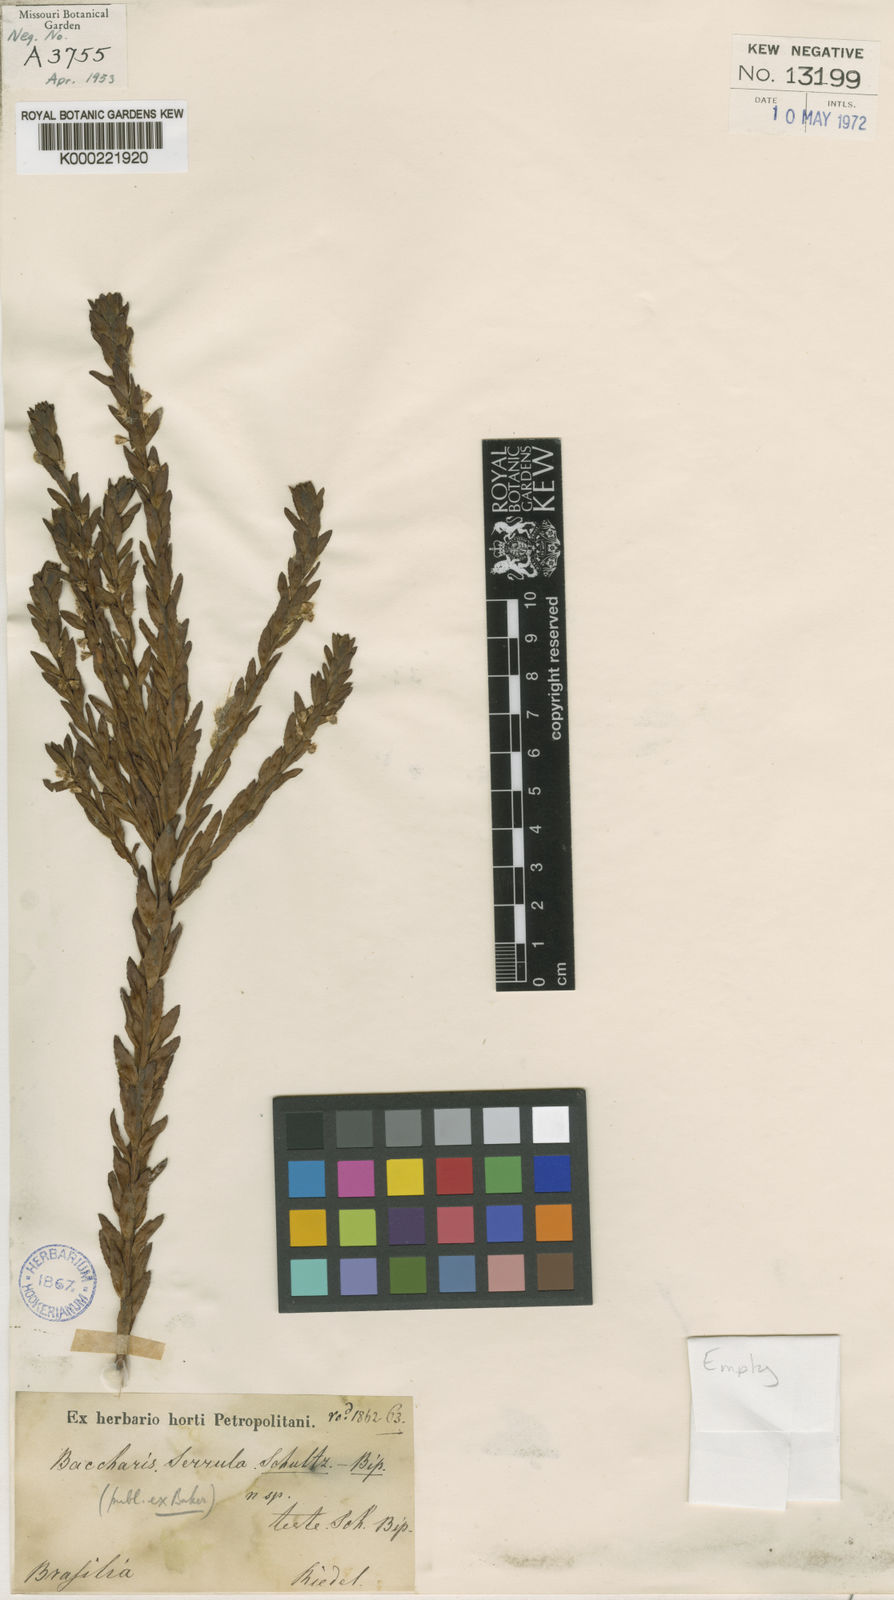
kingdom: Plantae
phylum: Tracheophyta
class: Magnoliopsida
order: Asterales
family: Asteraceae
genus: Baccharis
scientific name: Baccharis serrula
